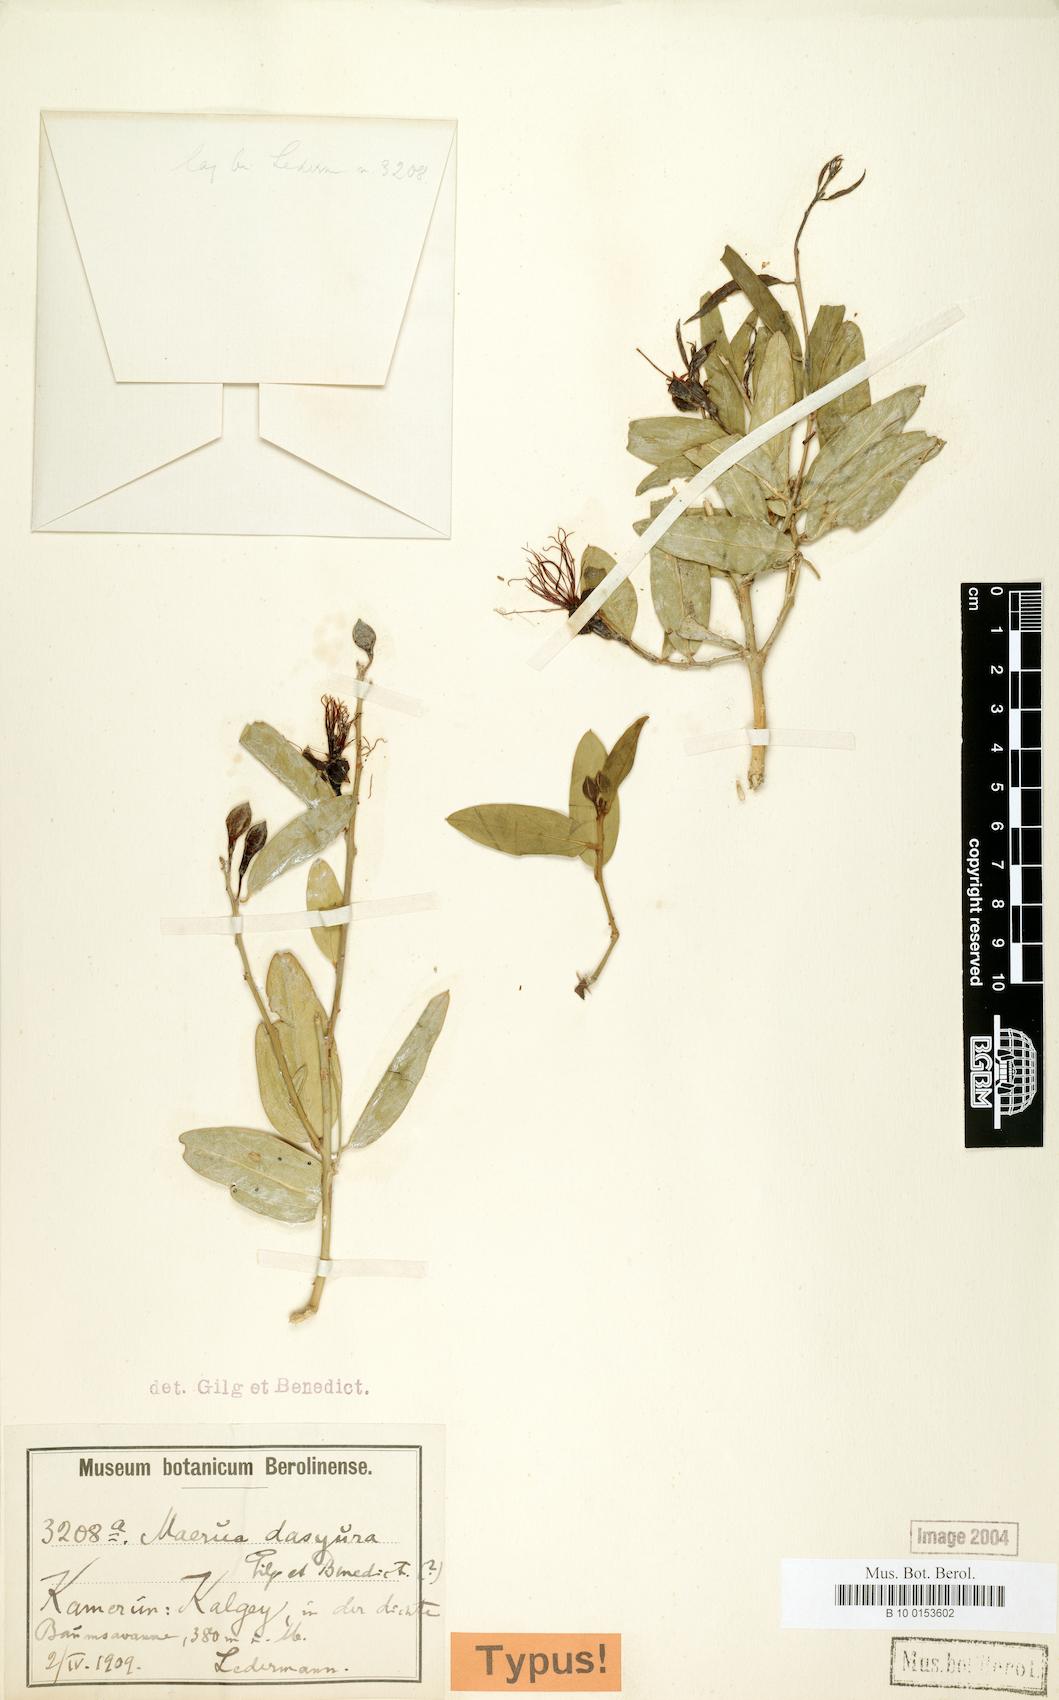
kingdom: Plantae
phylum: Tracheophyta
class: Magnoliopsida
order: Brassicales
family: Capparaceae
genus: Maerua
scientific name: Maerua oblongifolia
